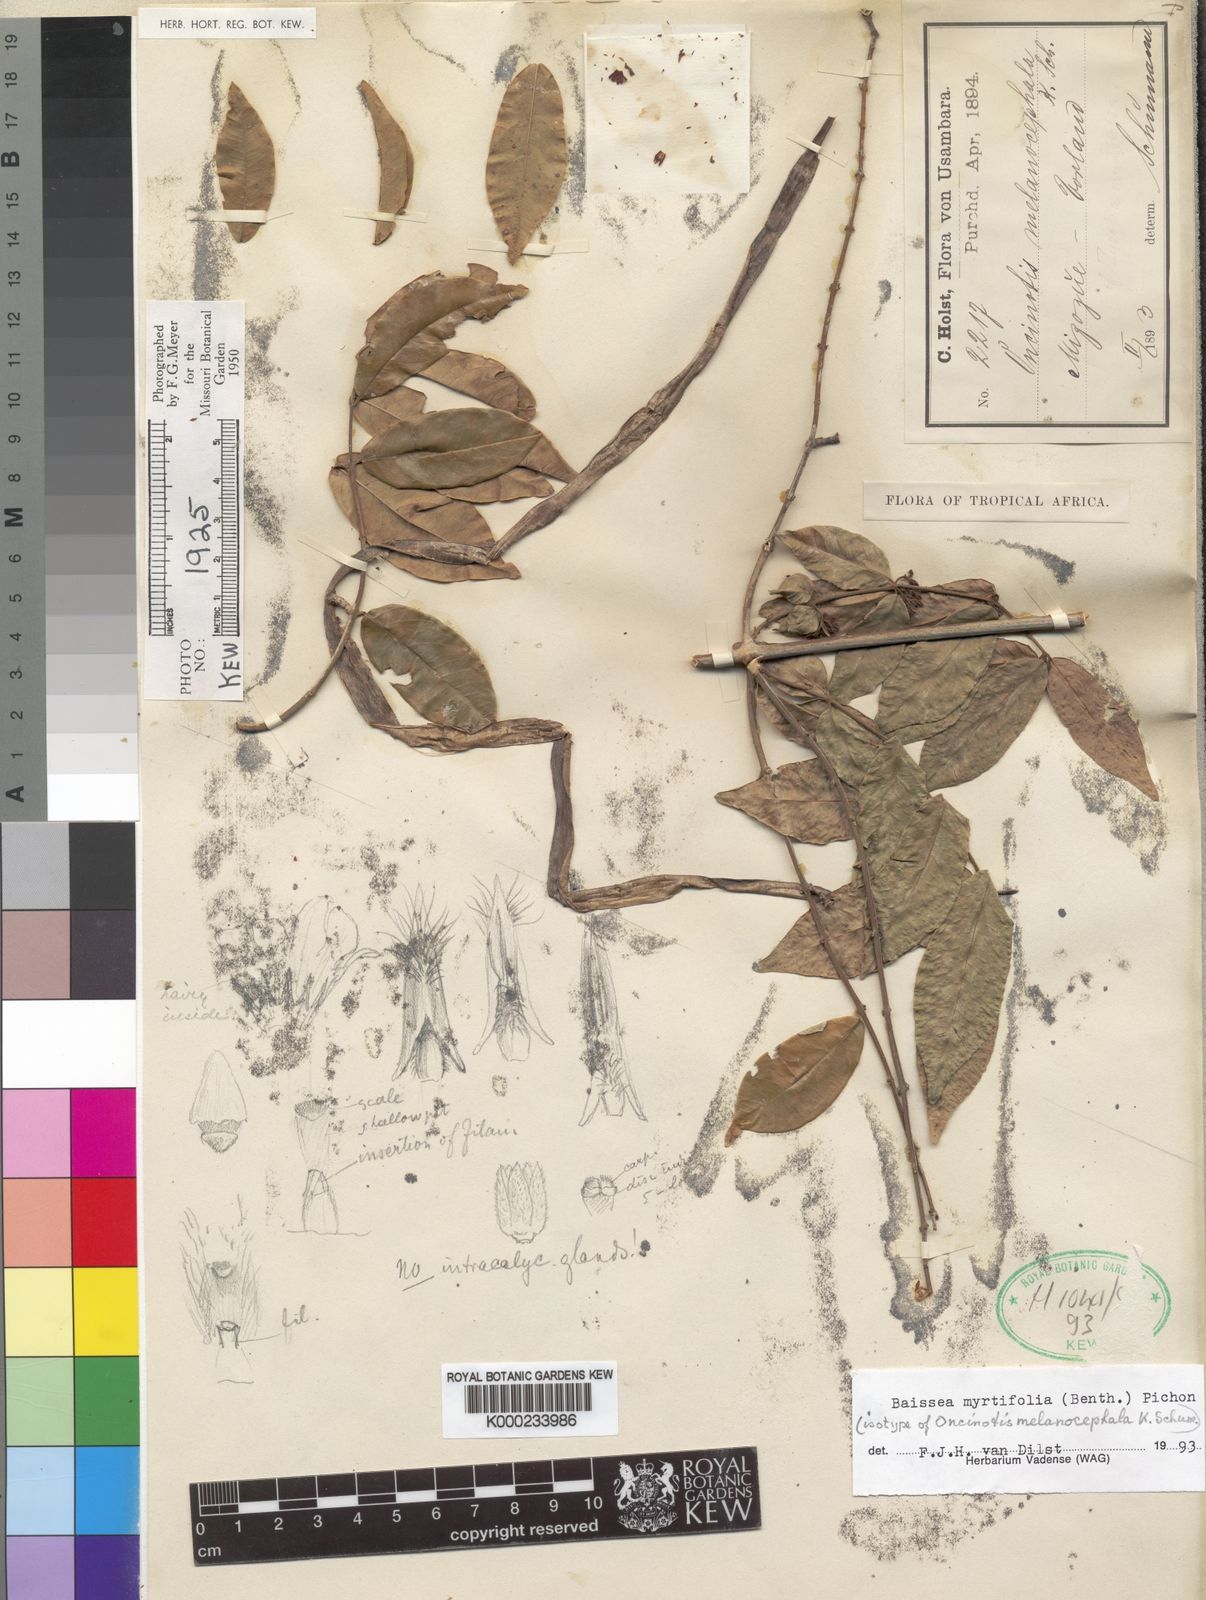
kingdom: Plantae
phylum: Tracheophyta
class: Magnoliopsida
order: Gentianales
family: Apocynaceae
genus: Baissea
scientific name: Baissea myrtifolia
